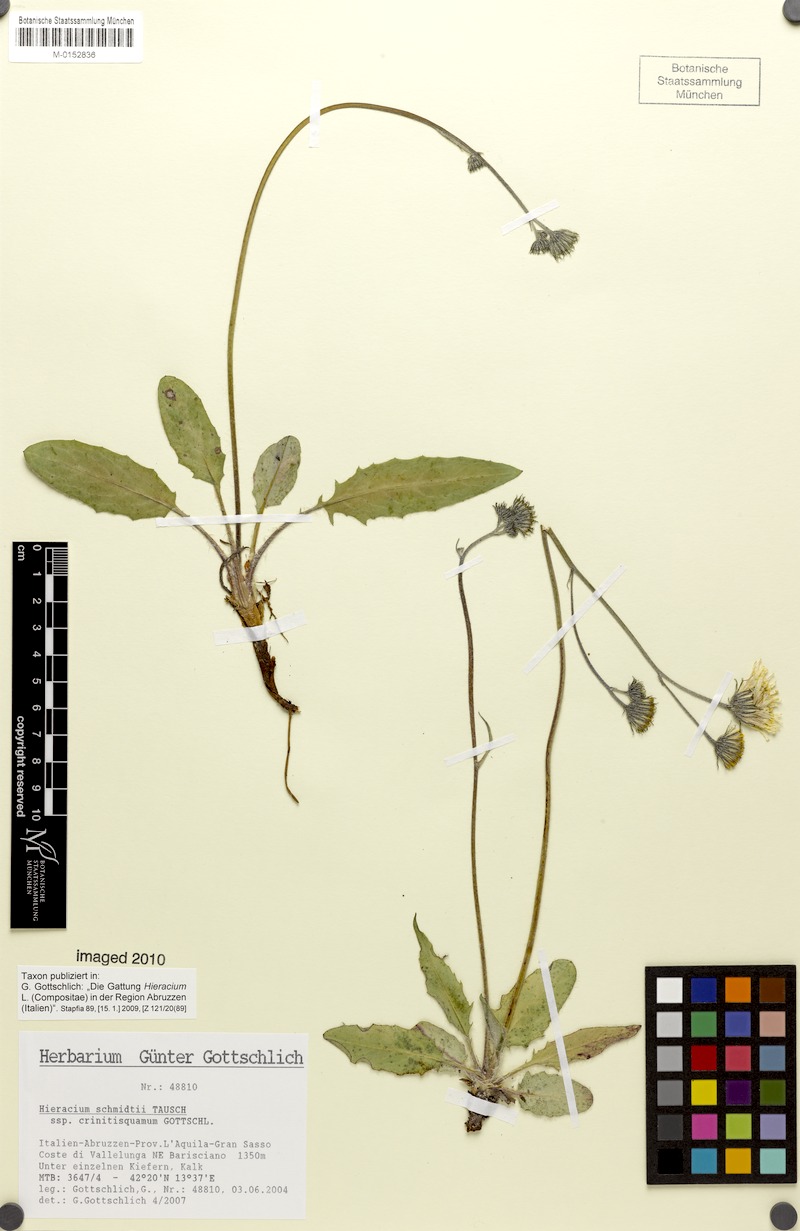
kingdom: Plantae
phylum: Tracheophyta
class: Magnoliopsida
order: Asterales
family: Asteraceae
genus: Hieracium
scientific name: Hieracium schmidtii
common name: Schmidt's hawkweed
